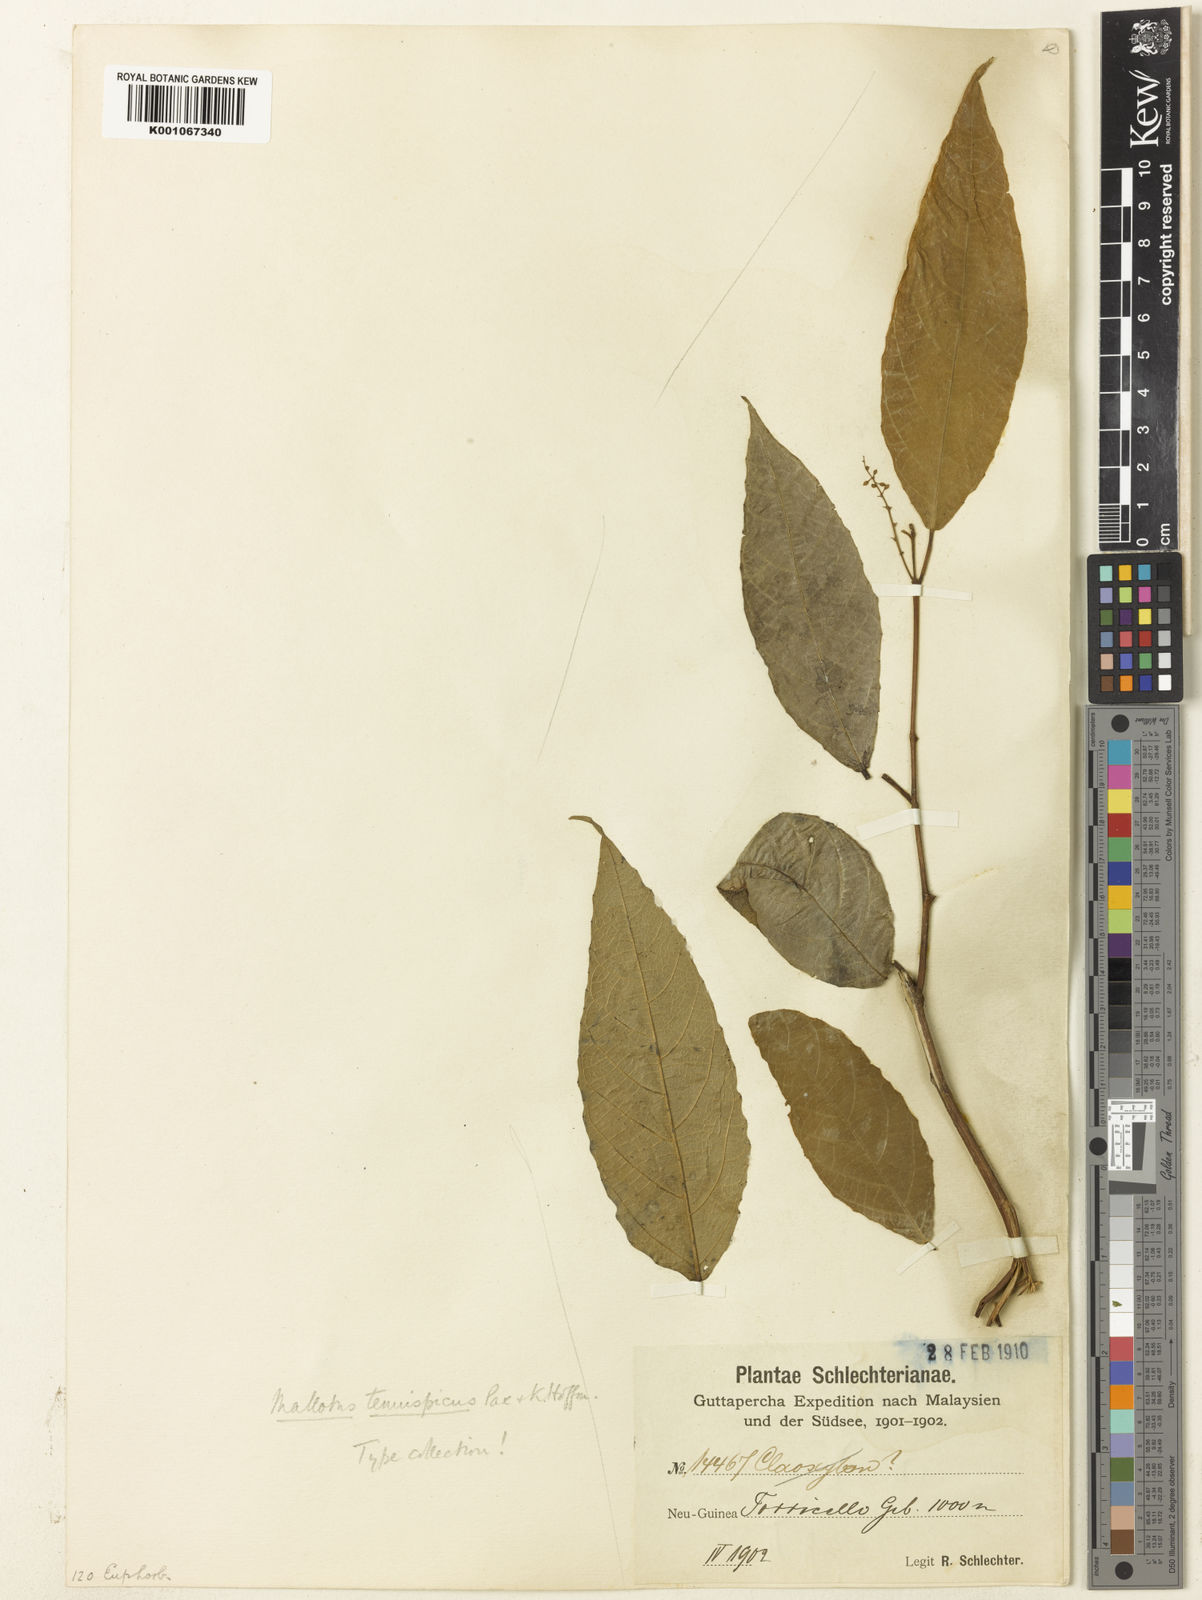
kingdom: Plantae
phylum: Tracheophyta
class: Magnoliopsida
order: Malpighiales
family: Euphorbiaceae
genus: Mallotus
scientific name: Mallotus peltatus
